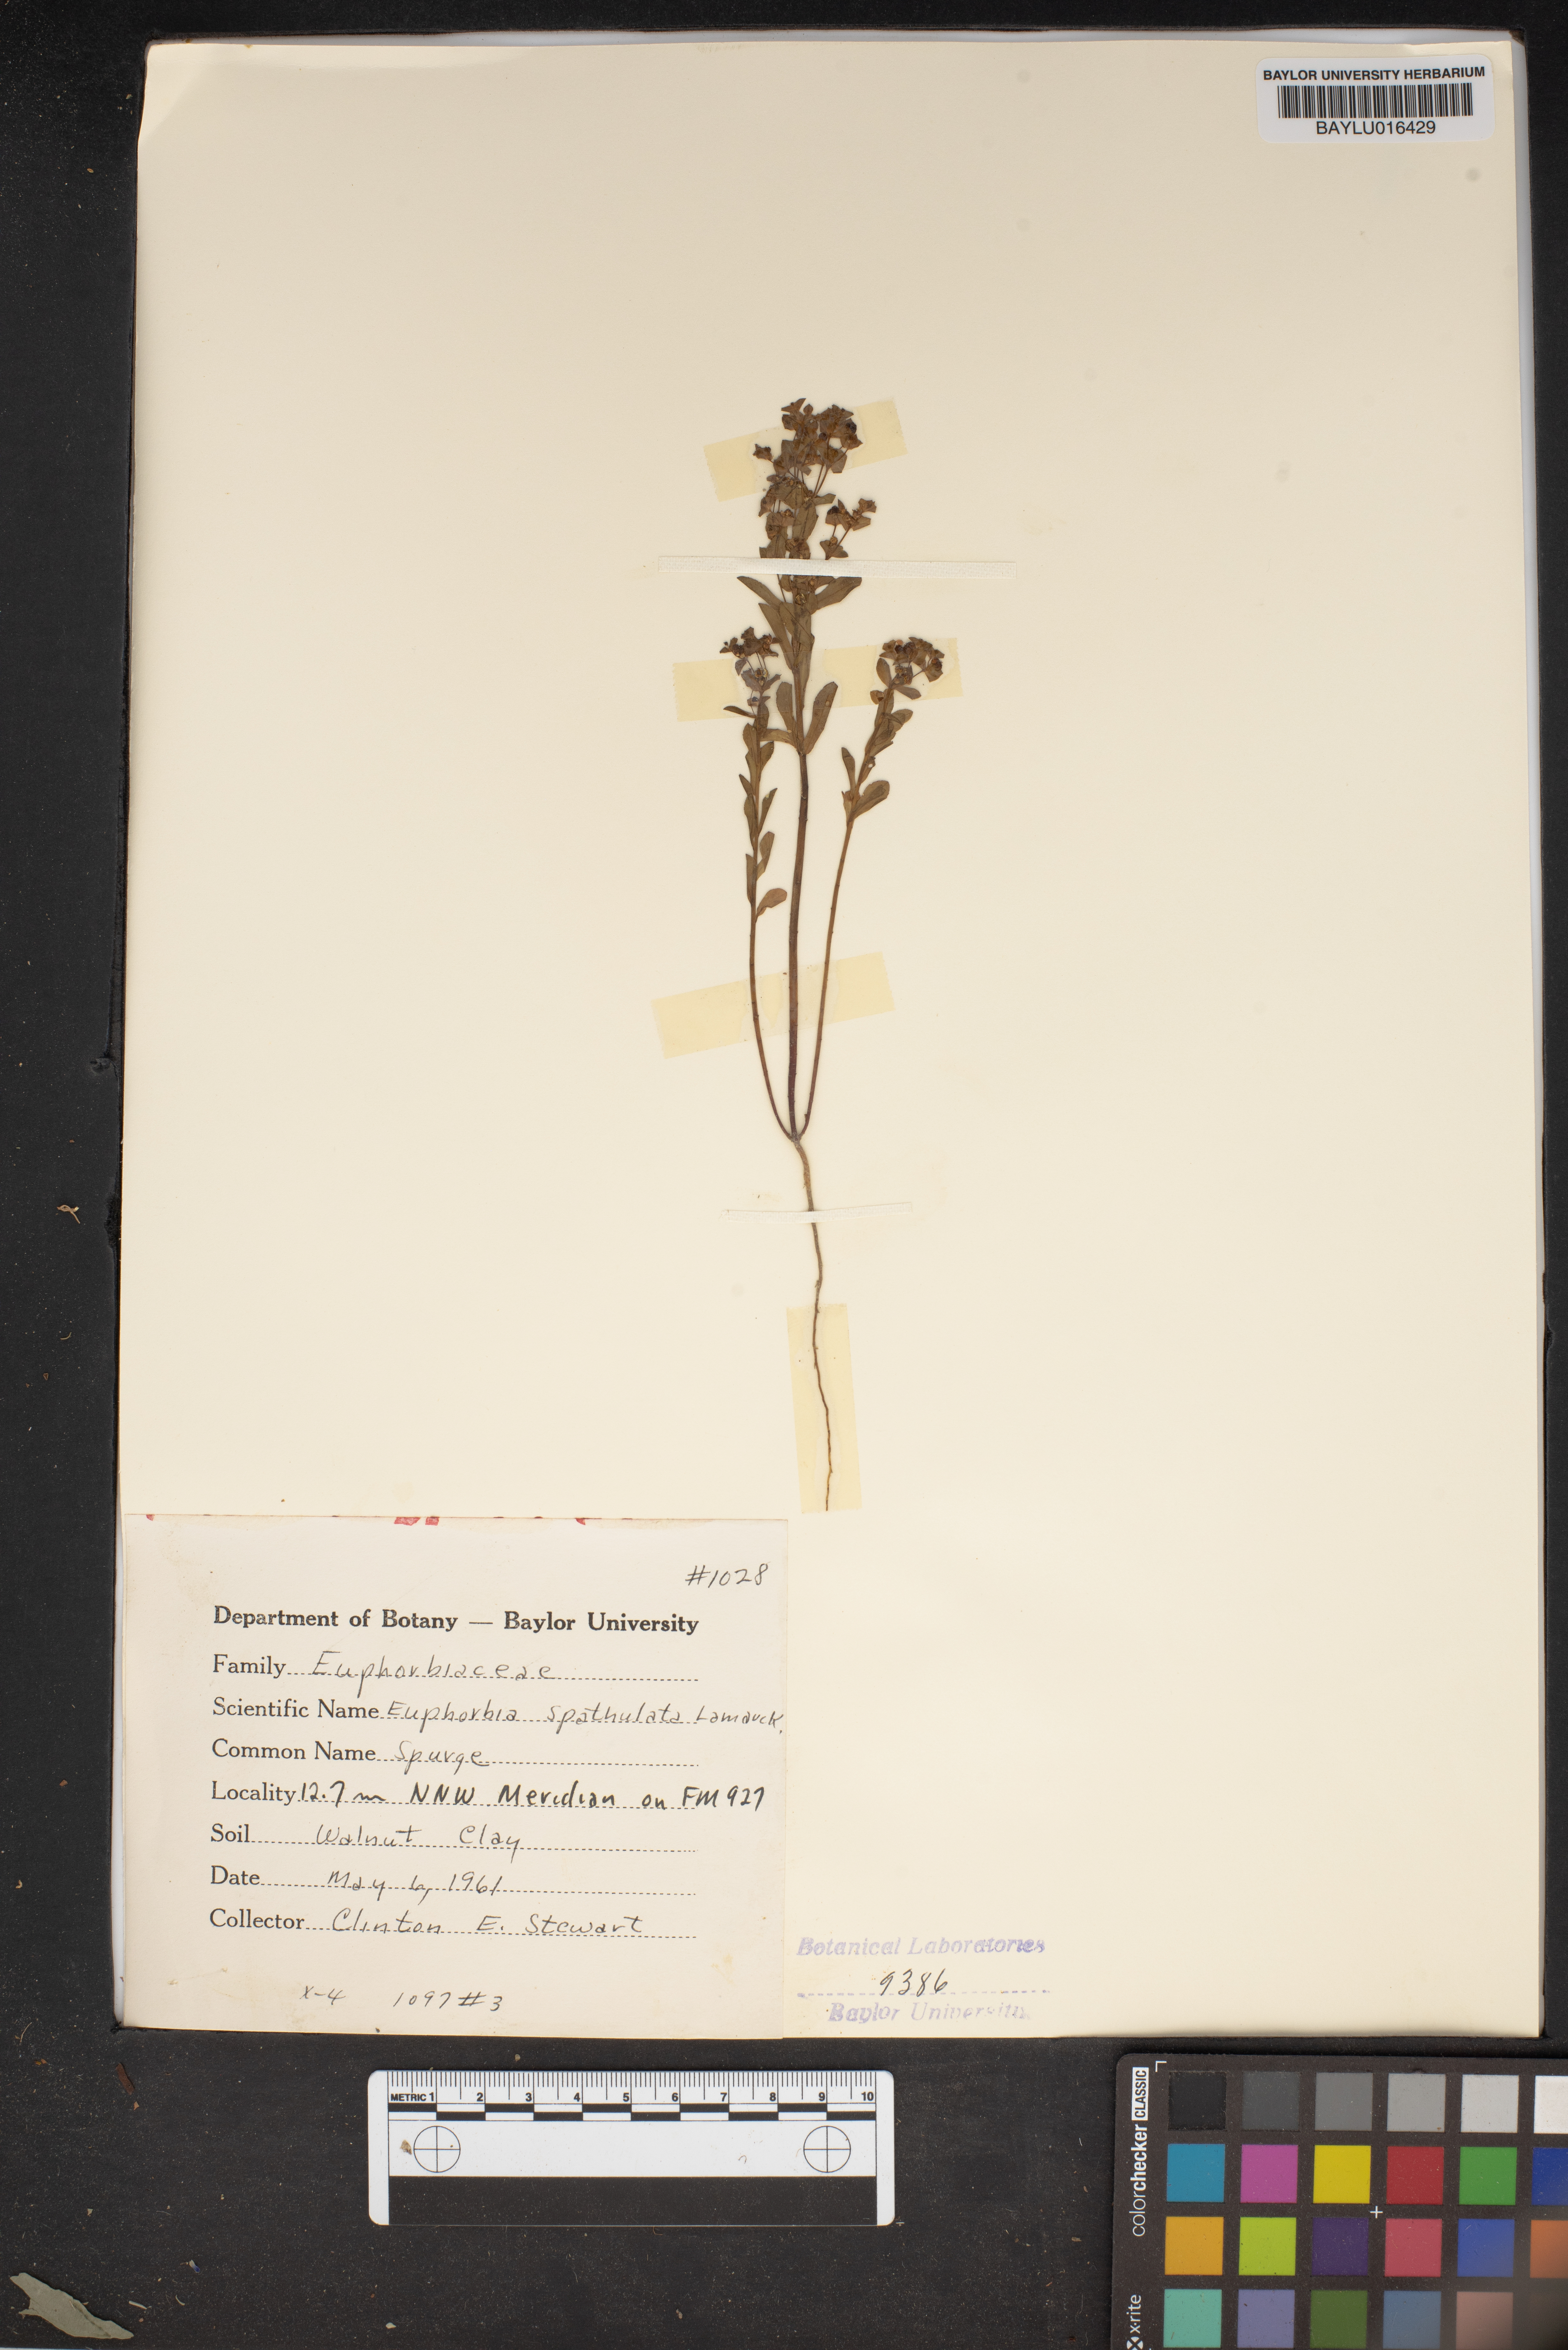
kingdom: Plantae
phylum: Tracheophyta
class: Magnoliopsida
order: Malpighiales
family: Euphorbiaceae
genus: Euphorbia
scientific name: Euphorbia spathulata
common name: Blunt spurge
